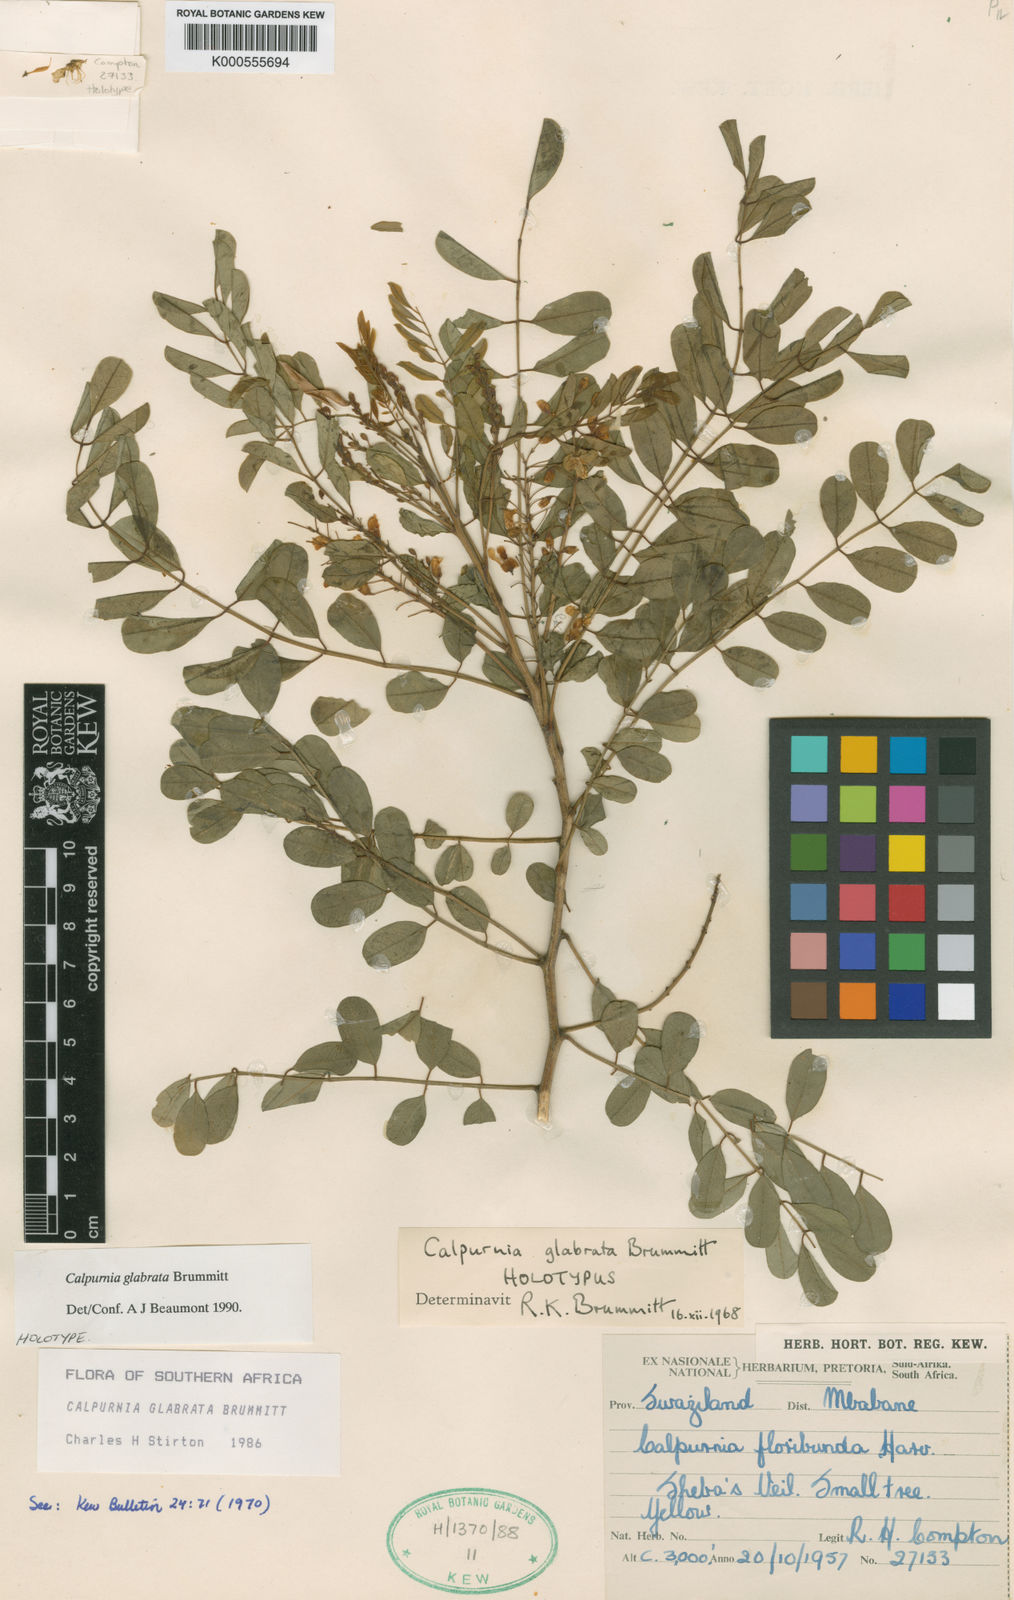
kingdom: Plantae
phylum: Tracheophyta
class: Magnoliopsida
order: Fabales
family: Fabaceae
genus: Calpurnia
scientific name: Calpurnia glabrata
